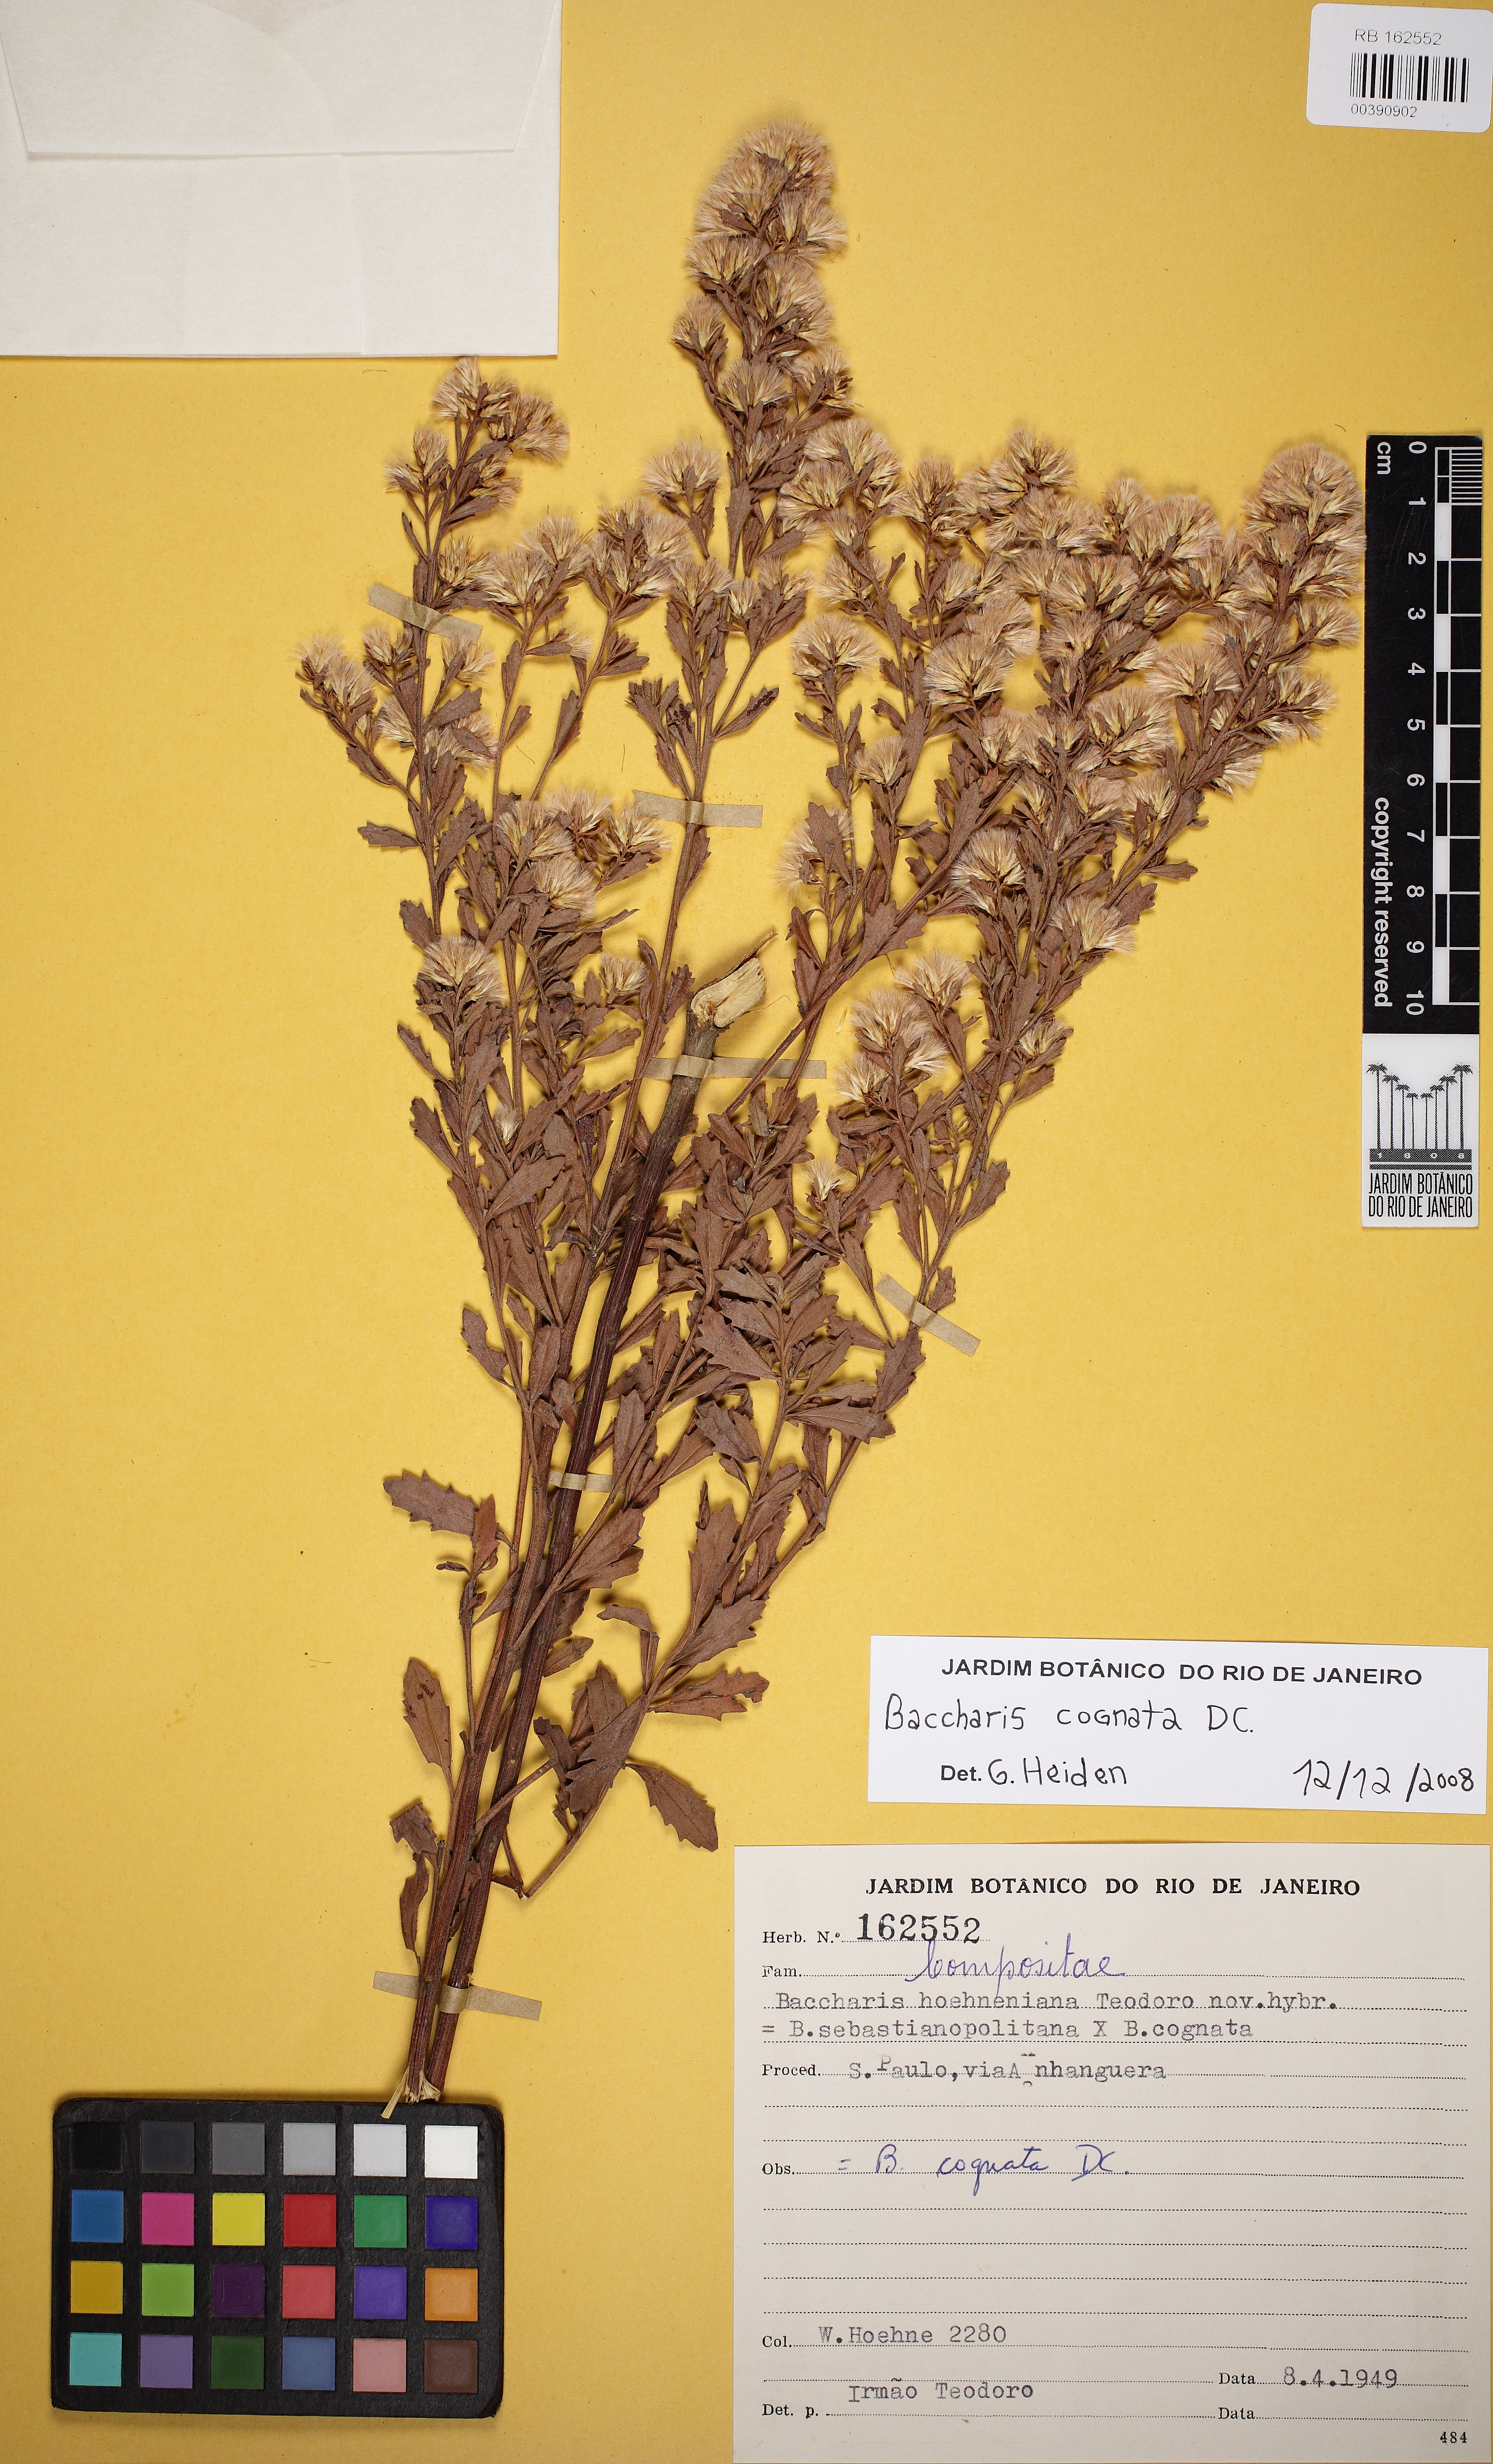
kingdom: Plantae
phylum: Tracheophyta
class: Magnoliopsida
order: Asterales
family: Asteraceae
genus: Baccharis
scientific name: Baccharis cognata
